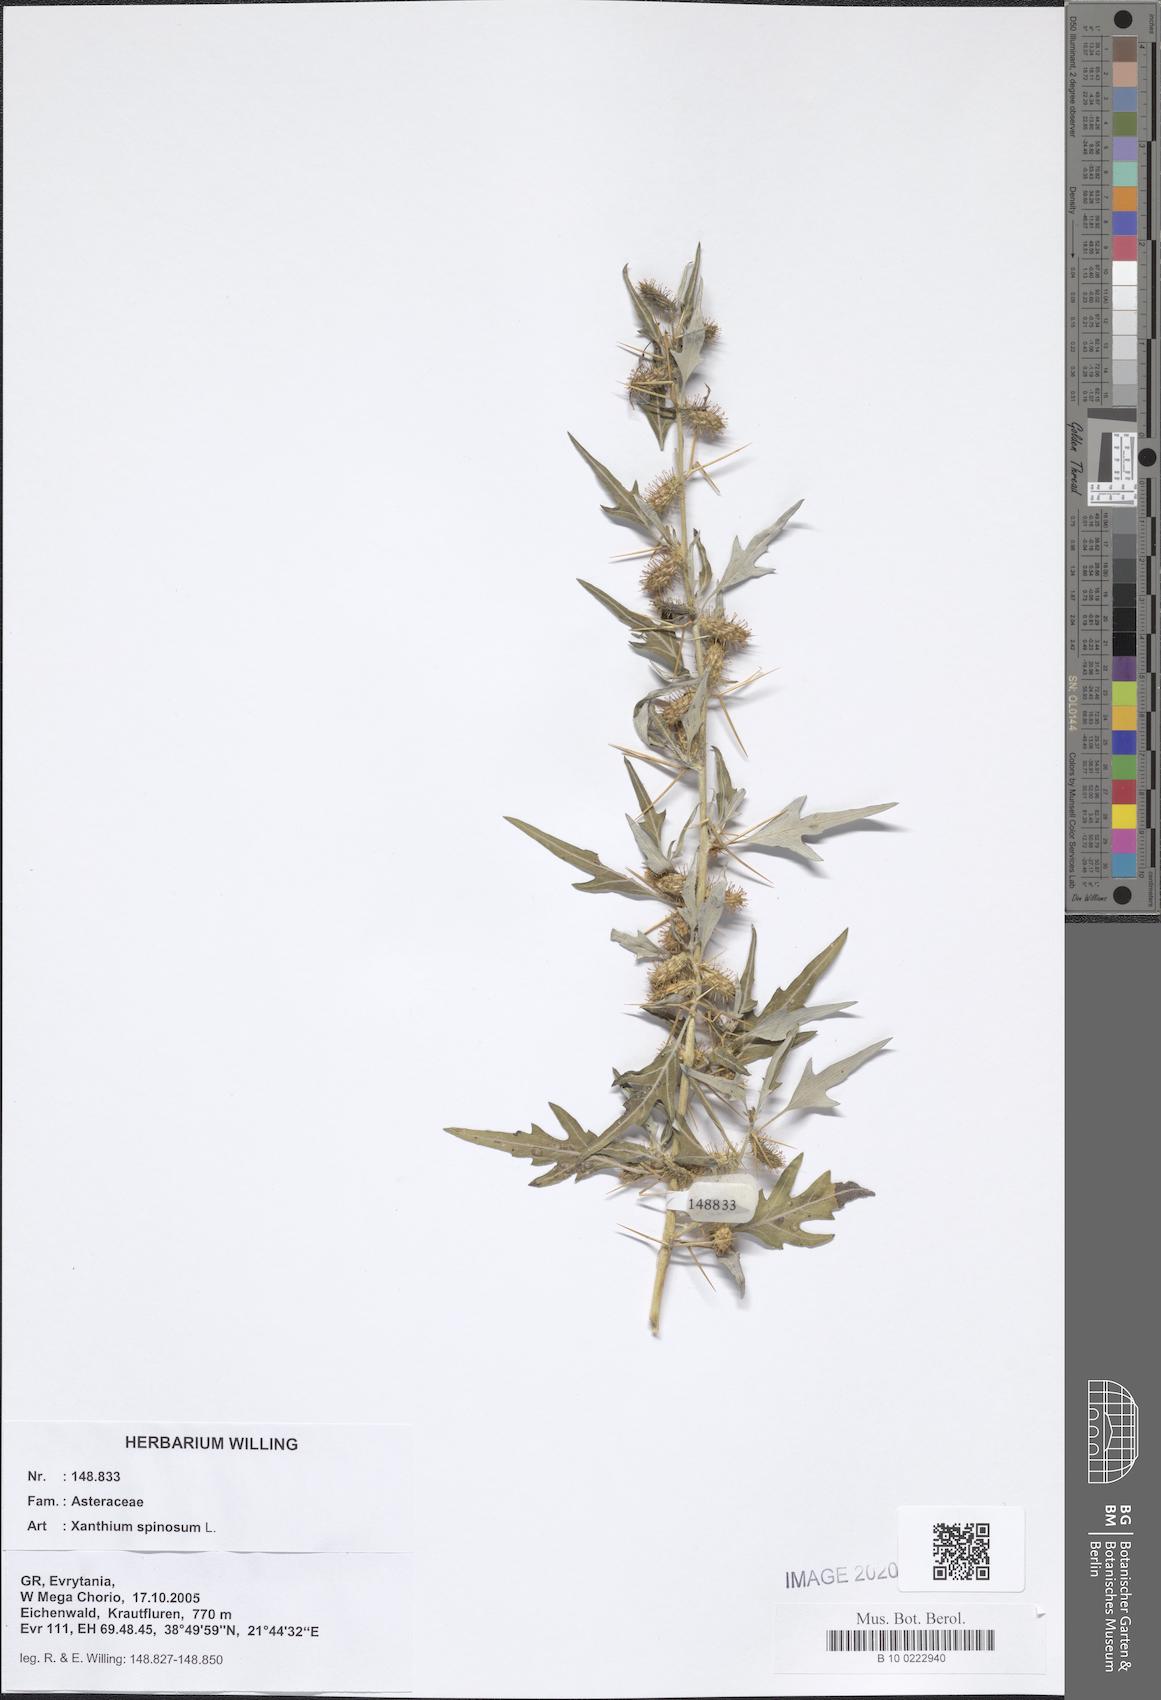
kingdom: Plantae
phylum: Tracheophyta
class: Magnoliopsida
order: Asterales
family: Asteraceae
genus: Xanthium
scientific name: Xanthium spinosum
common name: Spiny cocklebur
